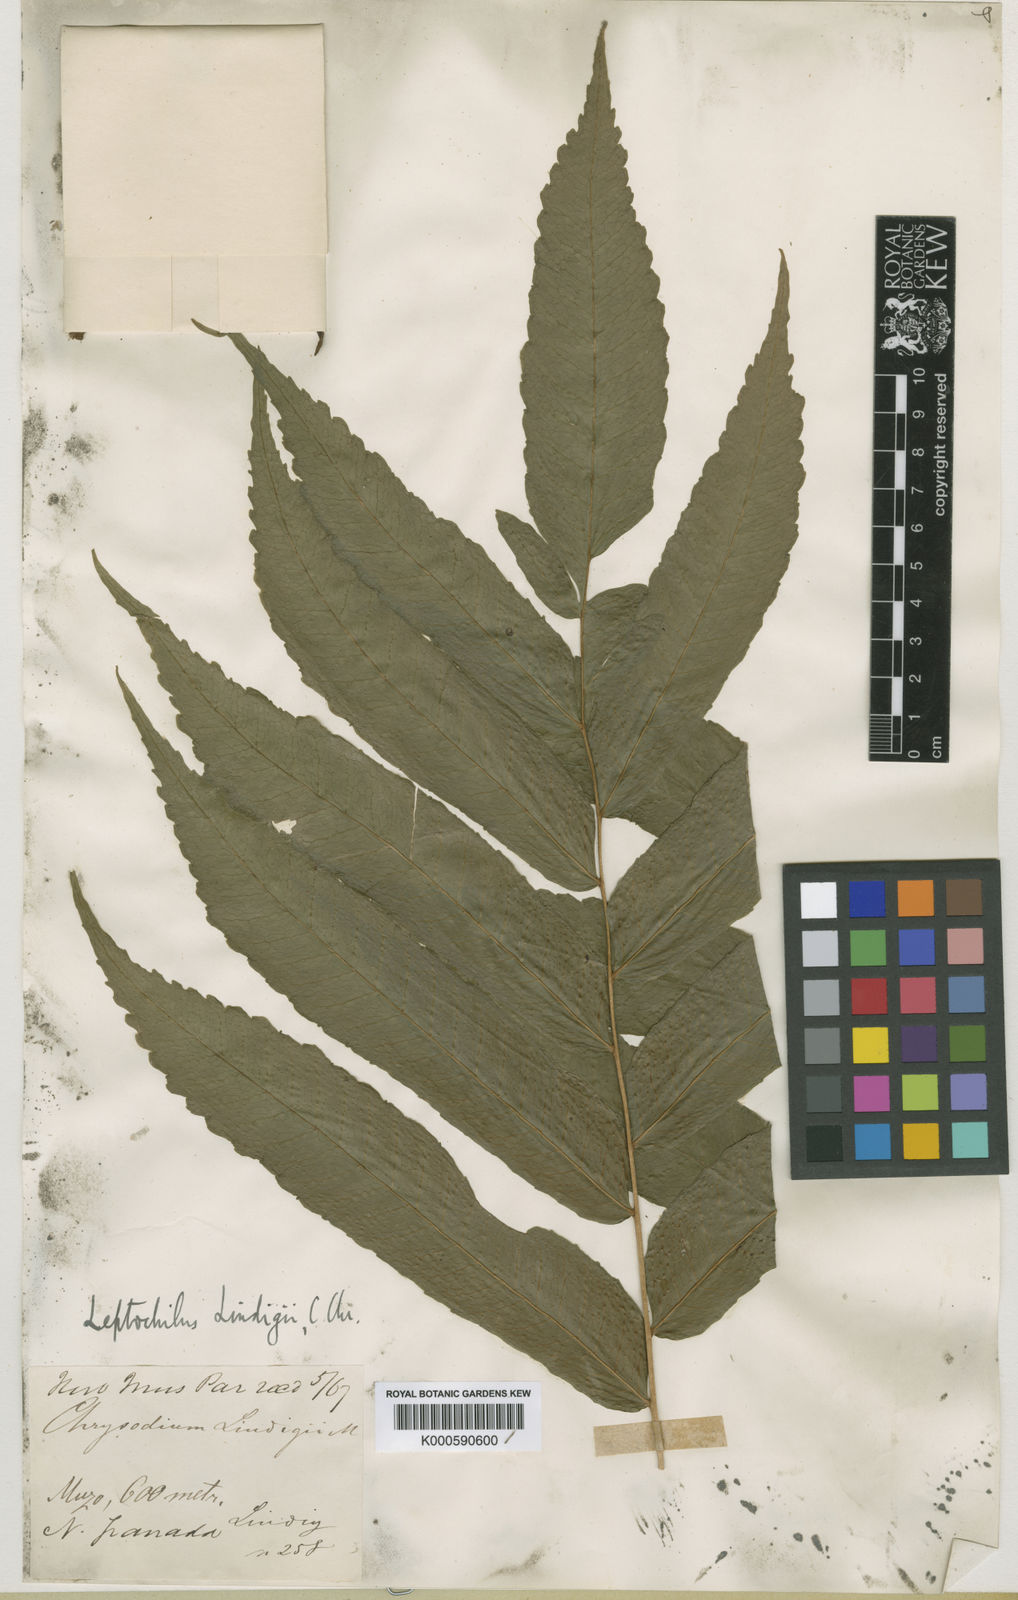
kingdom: Plantae
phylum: Tracheophyta
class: Polypodiopsida
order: Polypodiales
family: Dryopteridaceae
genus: Bolbitis
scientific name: Bolbitis
